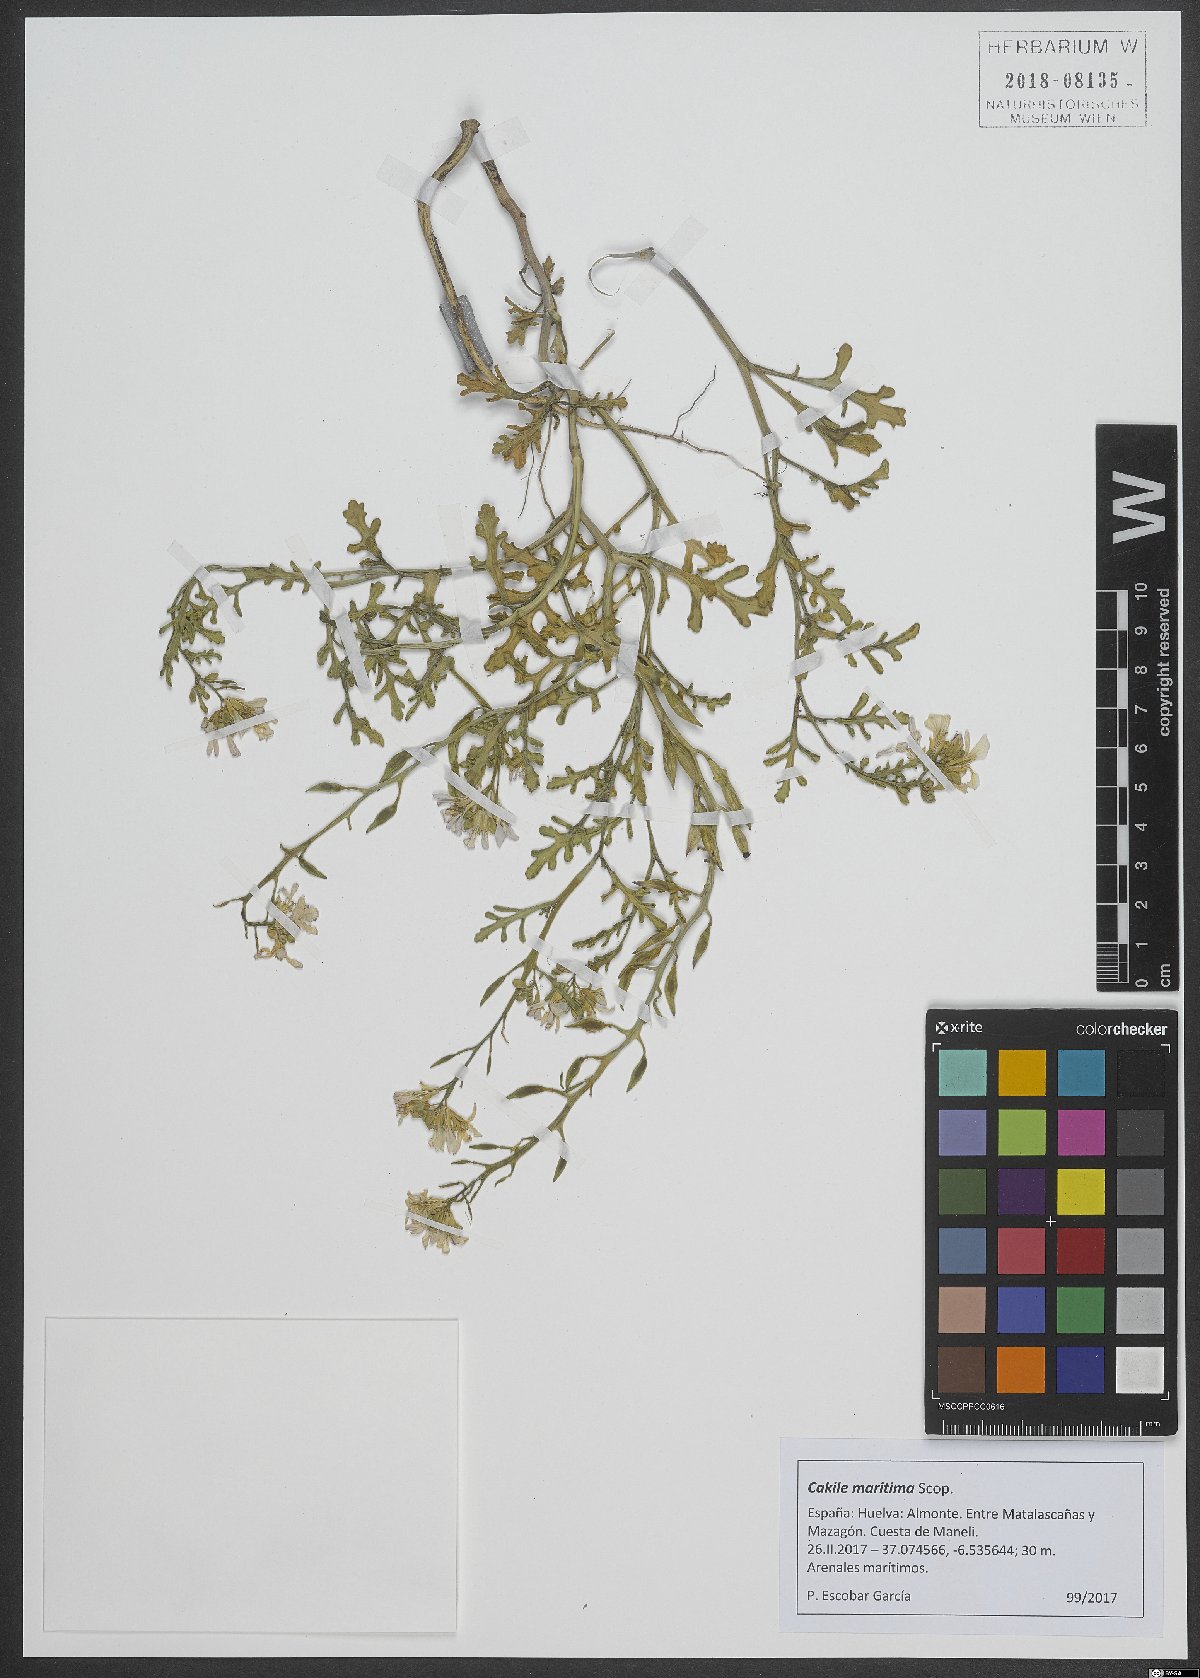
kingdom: Plantae
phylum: Tracheophyta
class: Magnoliopsida
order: Brassicales
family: Brassicaceae
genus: Cakile
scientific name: Cakile maritima
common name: Sea rocket
